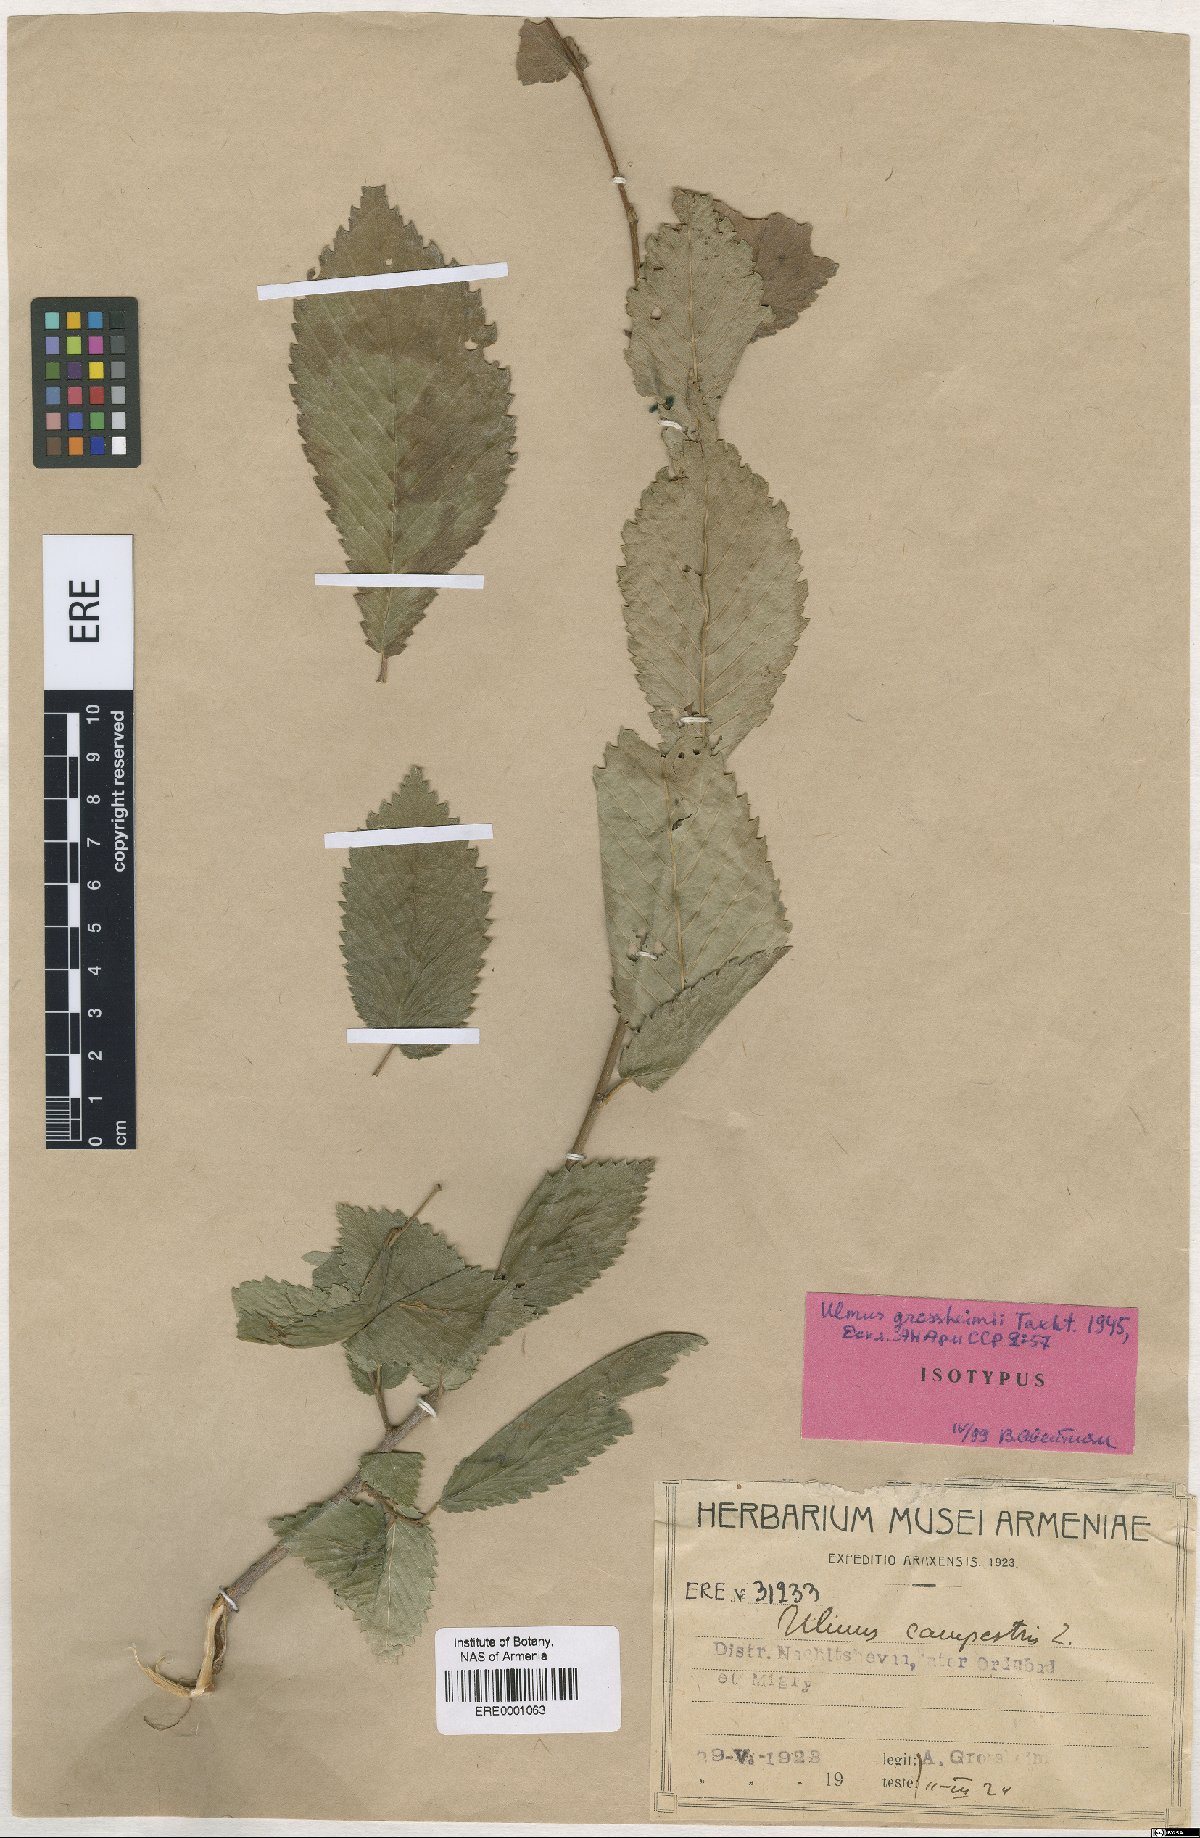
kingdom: Plantae
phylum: Tracheophyta
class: Magnoliopsida
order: Rosales
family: Ulmaceae
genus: Ulmus
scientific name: Ulmus minor
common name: Small-leaved elm
